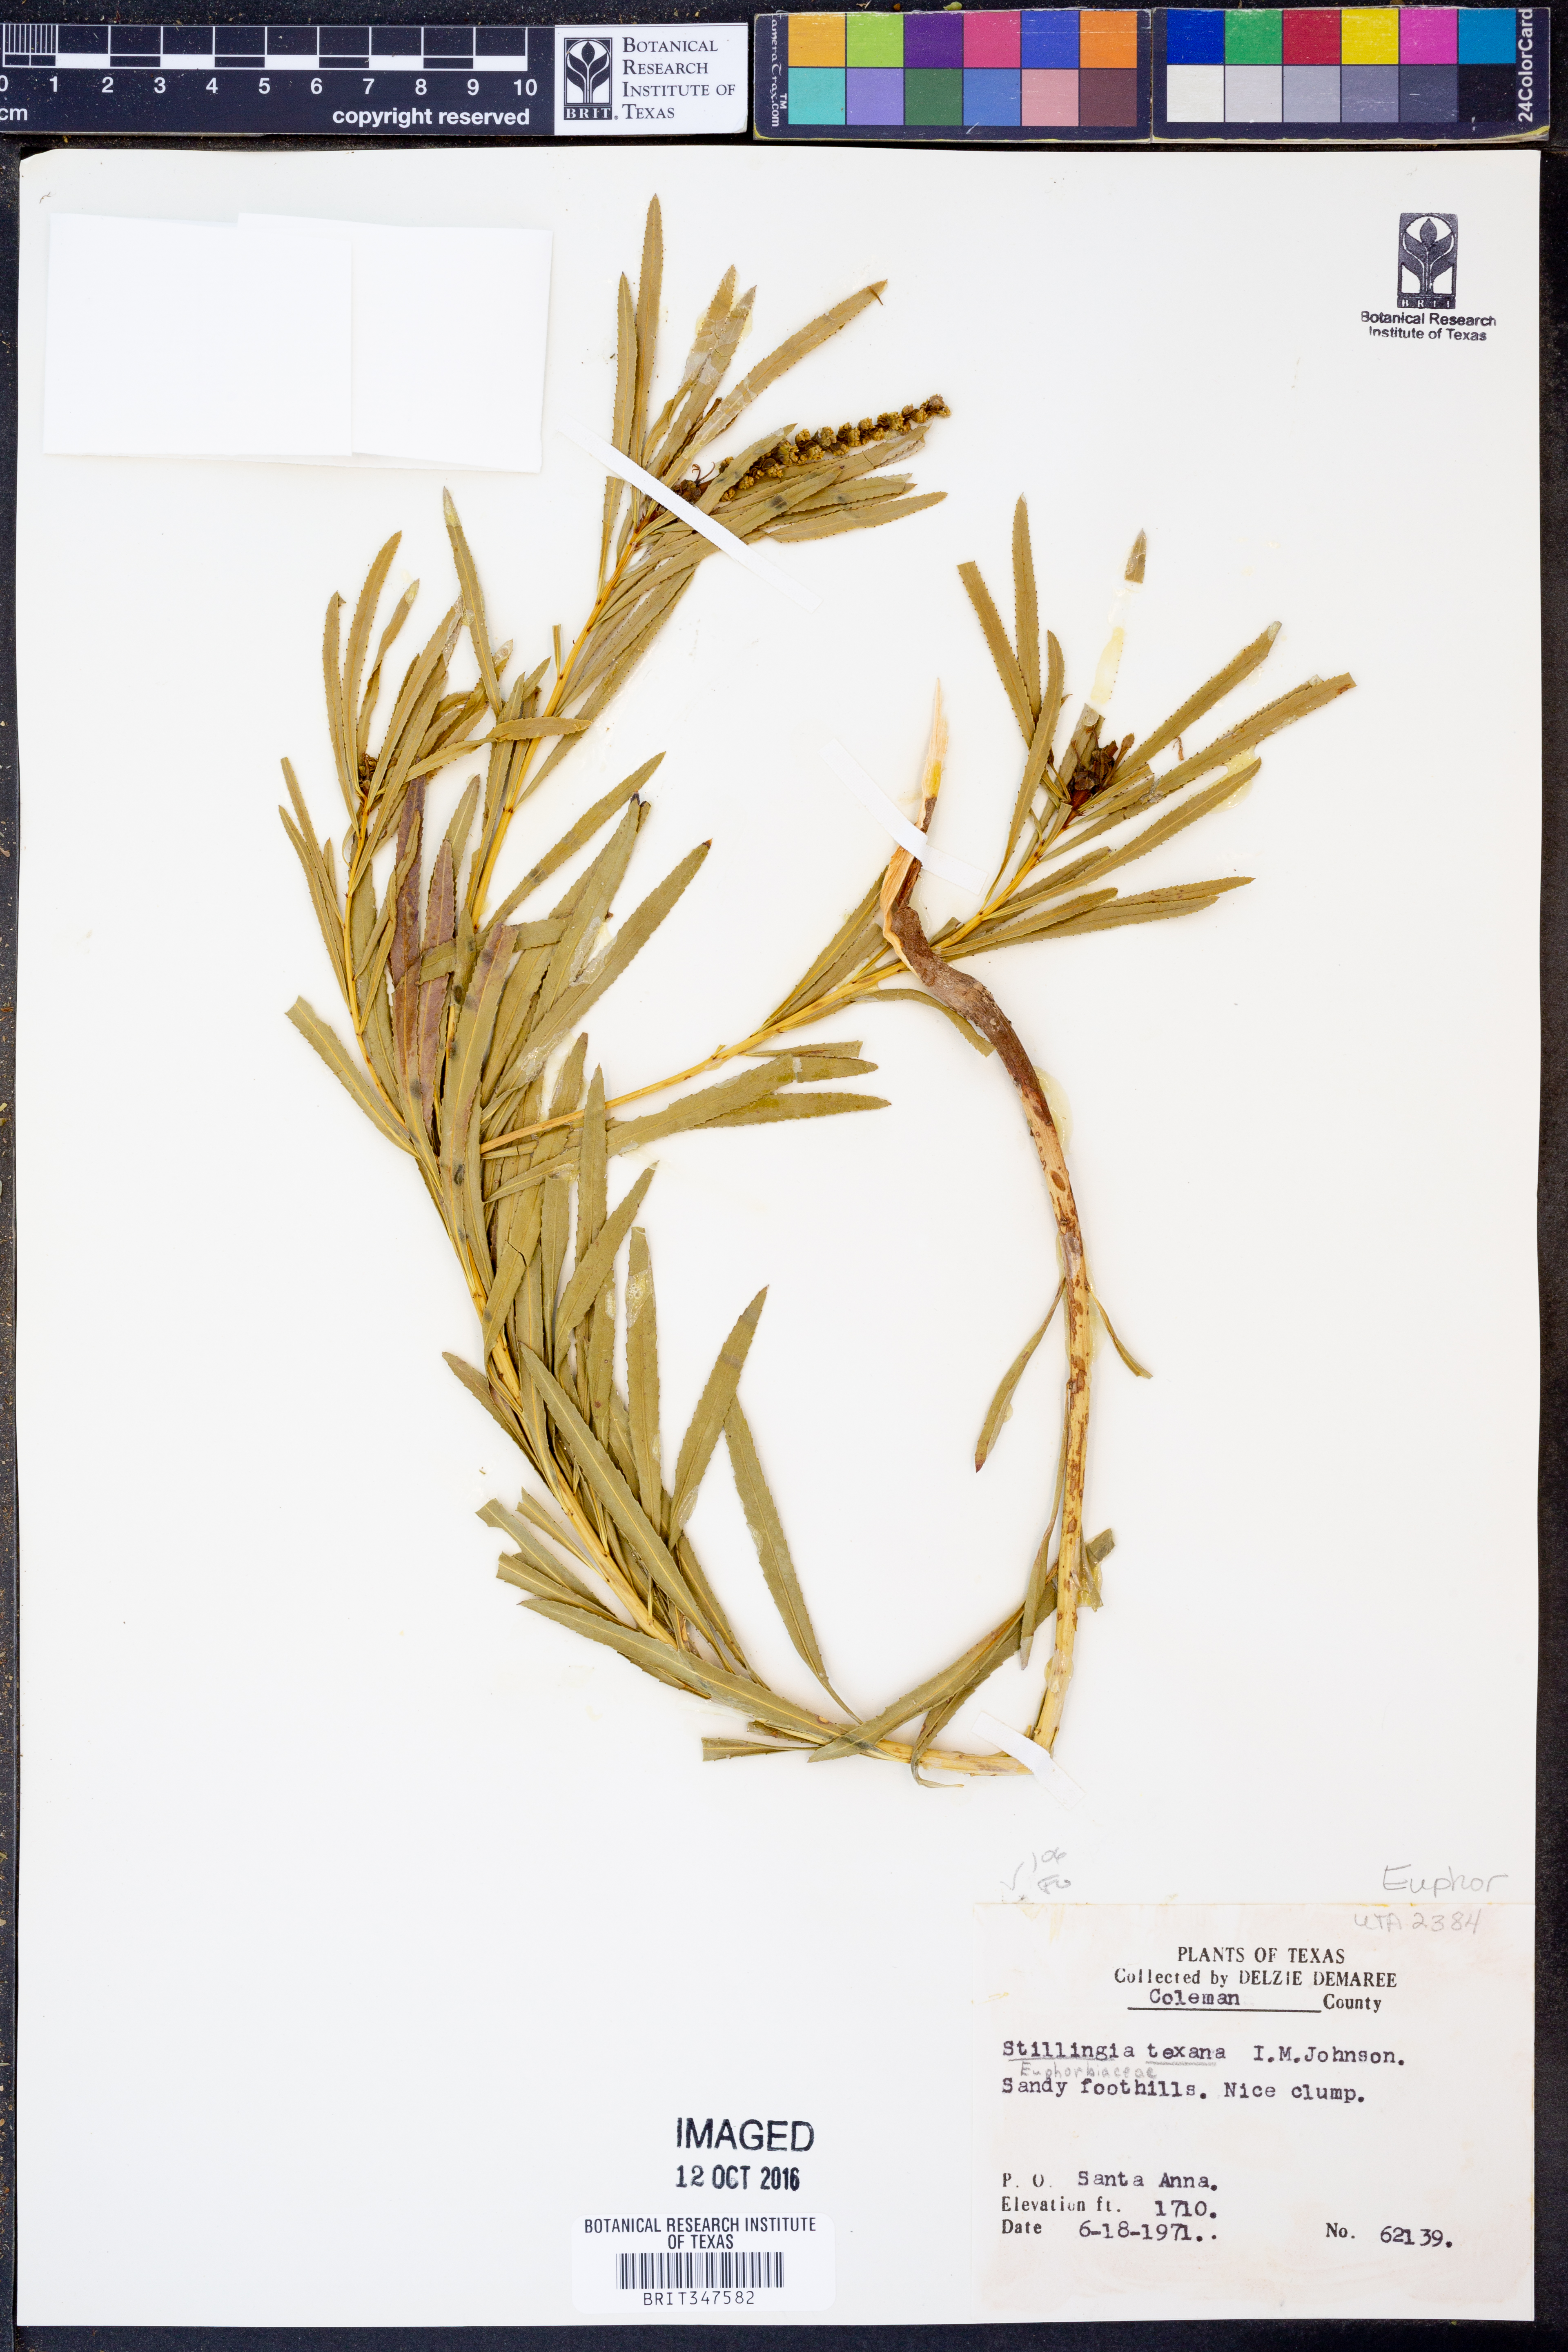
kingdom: Plantae
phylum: Tracheophyta
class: Magnoliopsida
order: Malpighiales
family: Euphorbiaceae
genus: Stillingia
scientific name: Stillingia texana
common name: Texas stillingia
